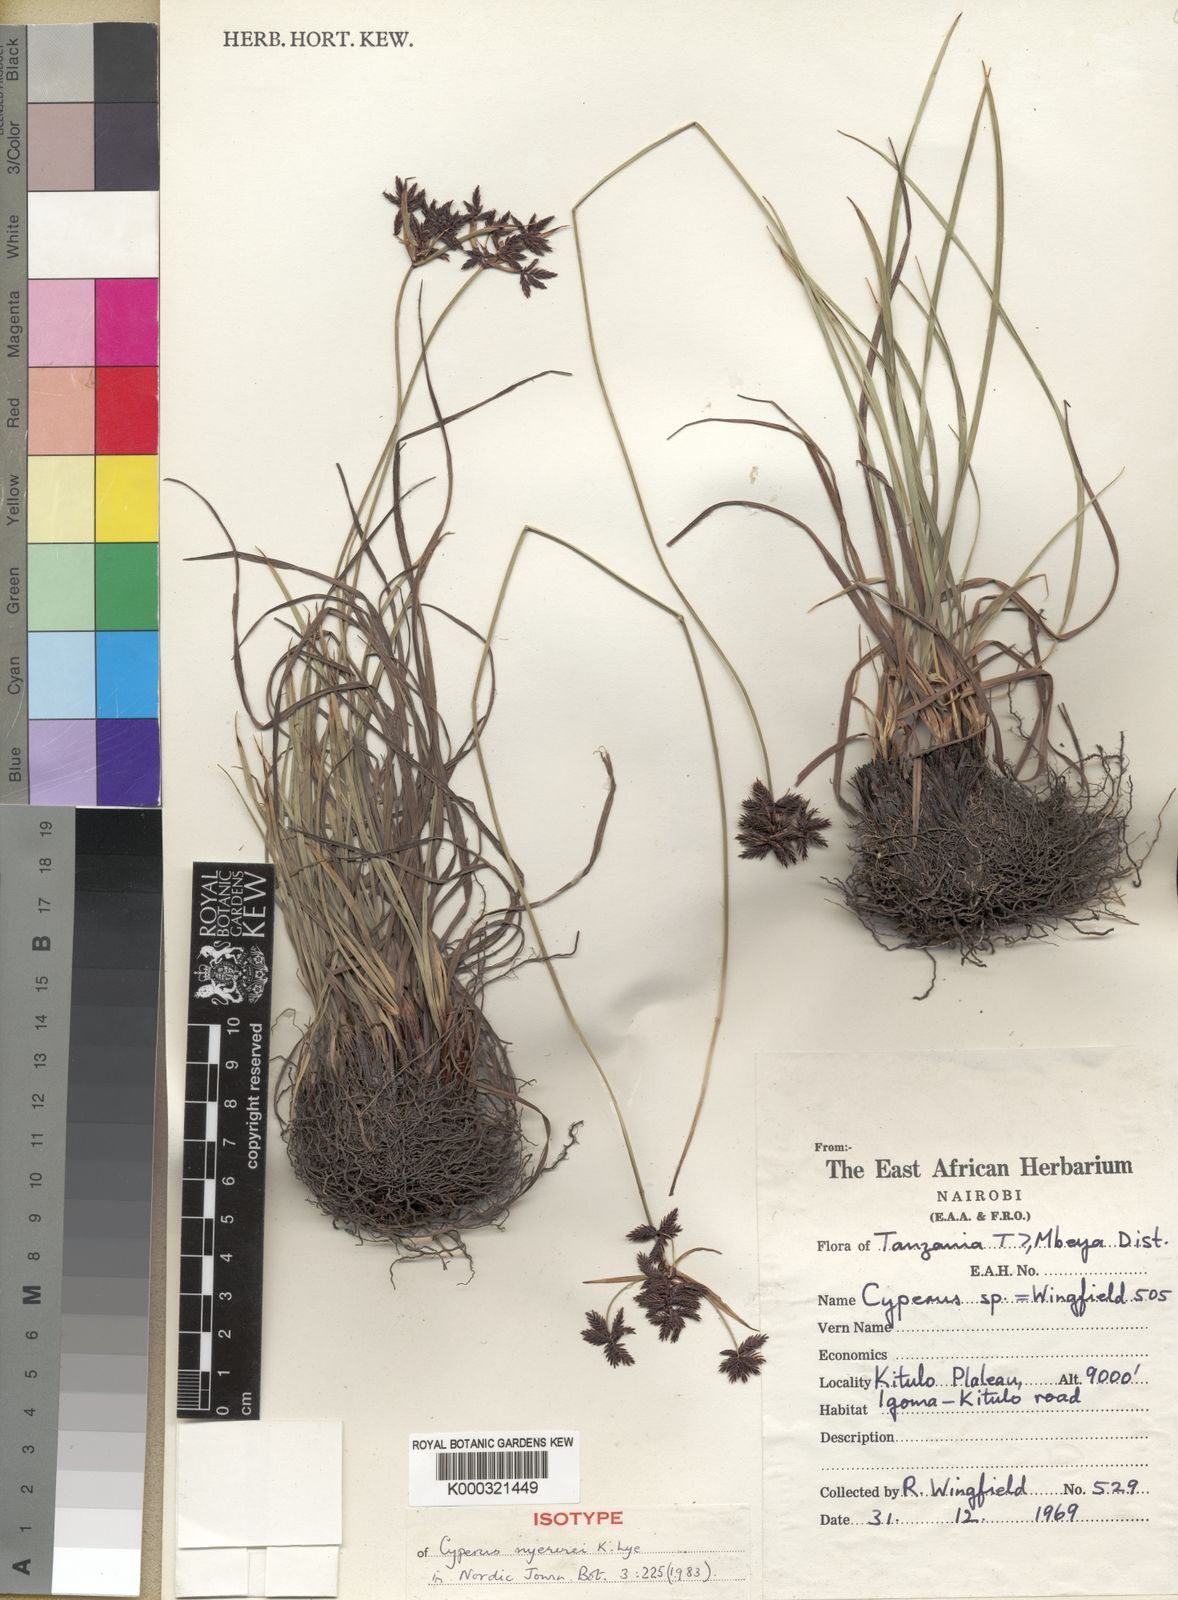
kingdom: Plantae
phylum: Tracheophyta
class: Liliopsida
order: Poales
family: Cyperaceae
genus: Cyperus
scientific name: Cyperus nyererei
